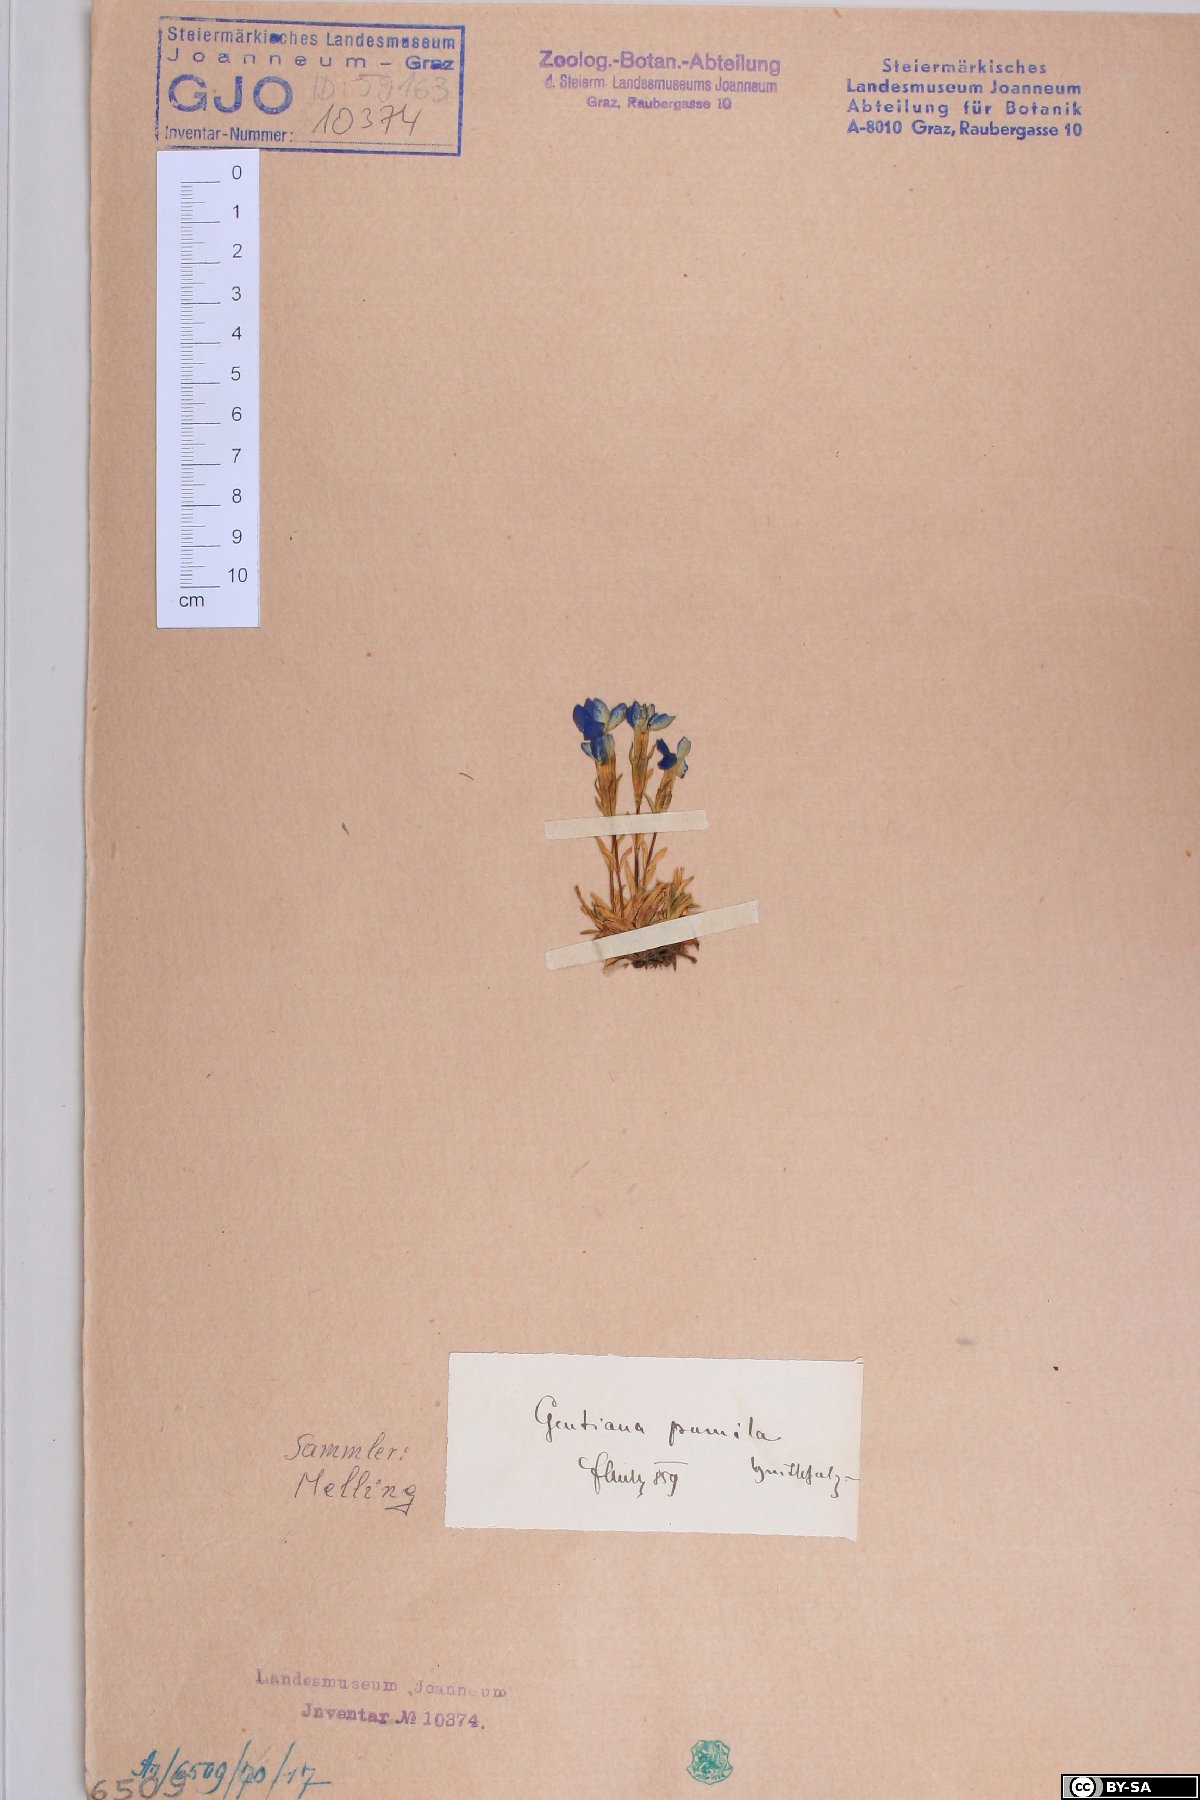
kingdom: Plantae
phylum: Tracheophyta
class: Magnoliopsida
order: Gentianales
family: Gentianaceae
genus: Gentiana
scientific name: Gentiana pumila
